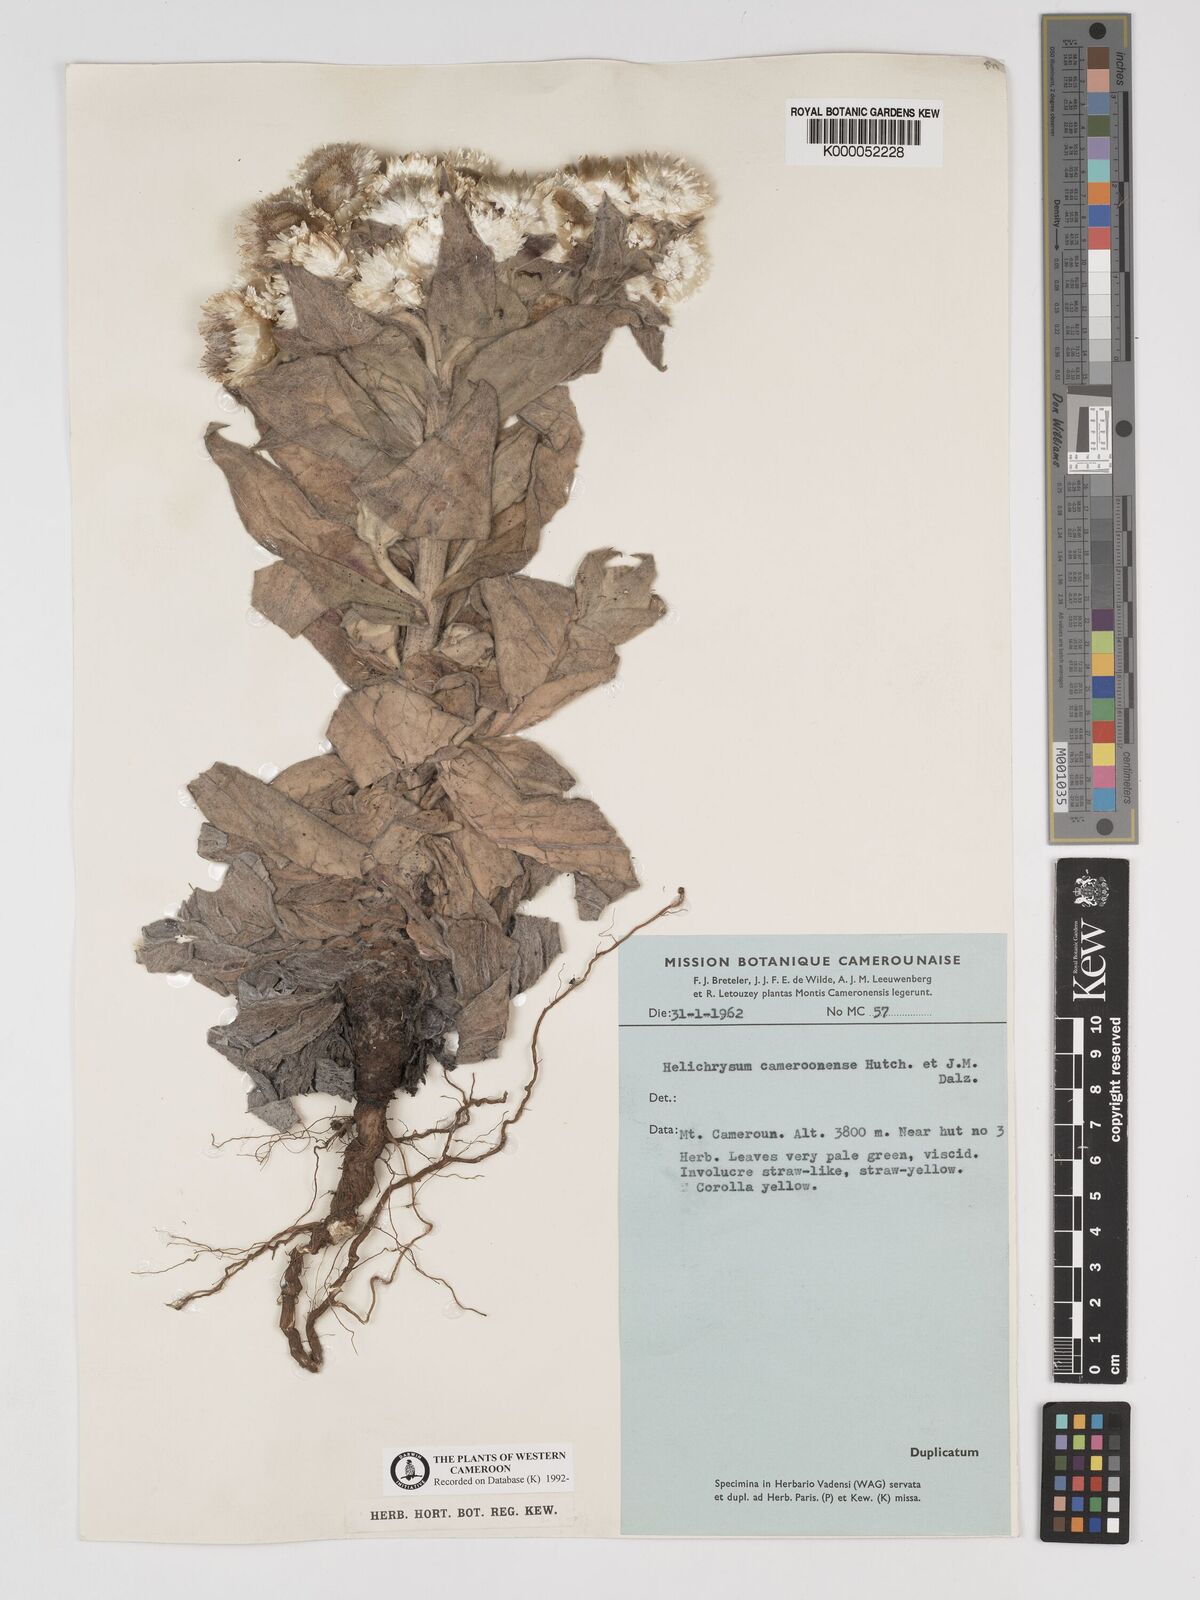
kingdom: Plantae
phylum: Tracheophyta
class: Magnoliopsida
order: Asterales
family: Asteraceae
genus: Helichrysum
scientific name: Helichrysum cameroonense
